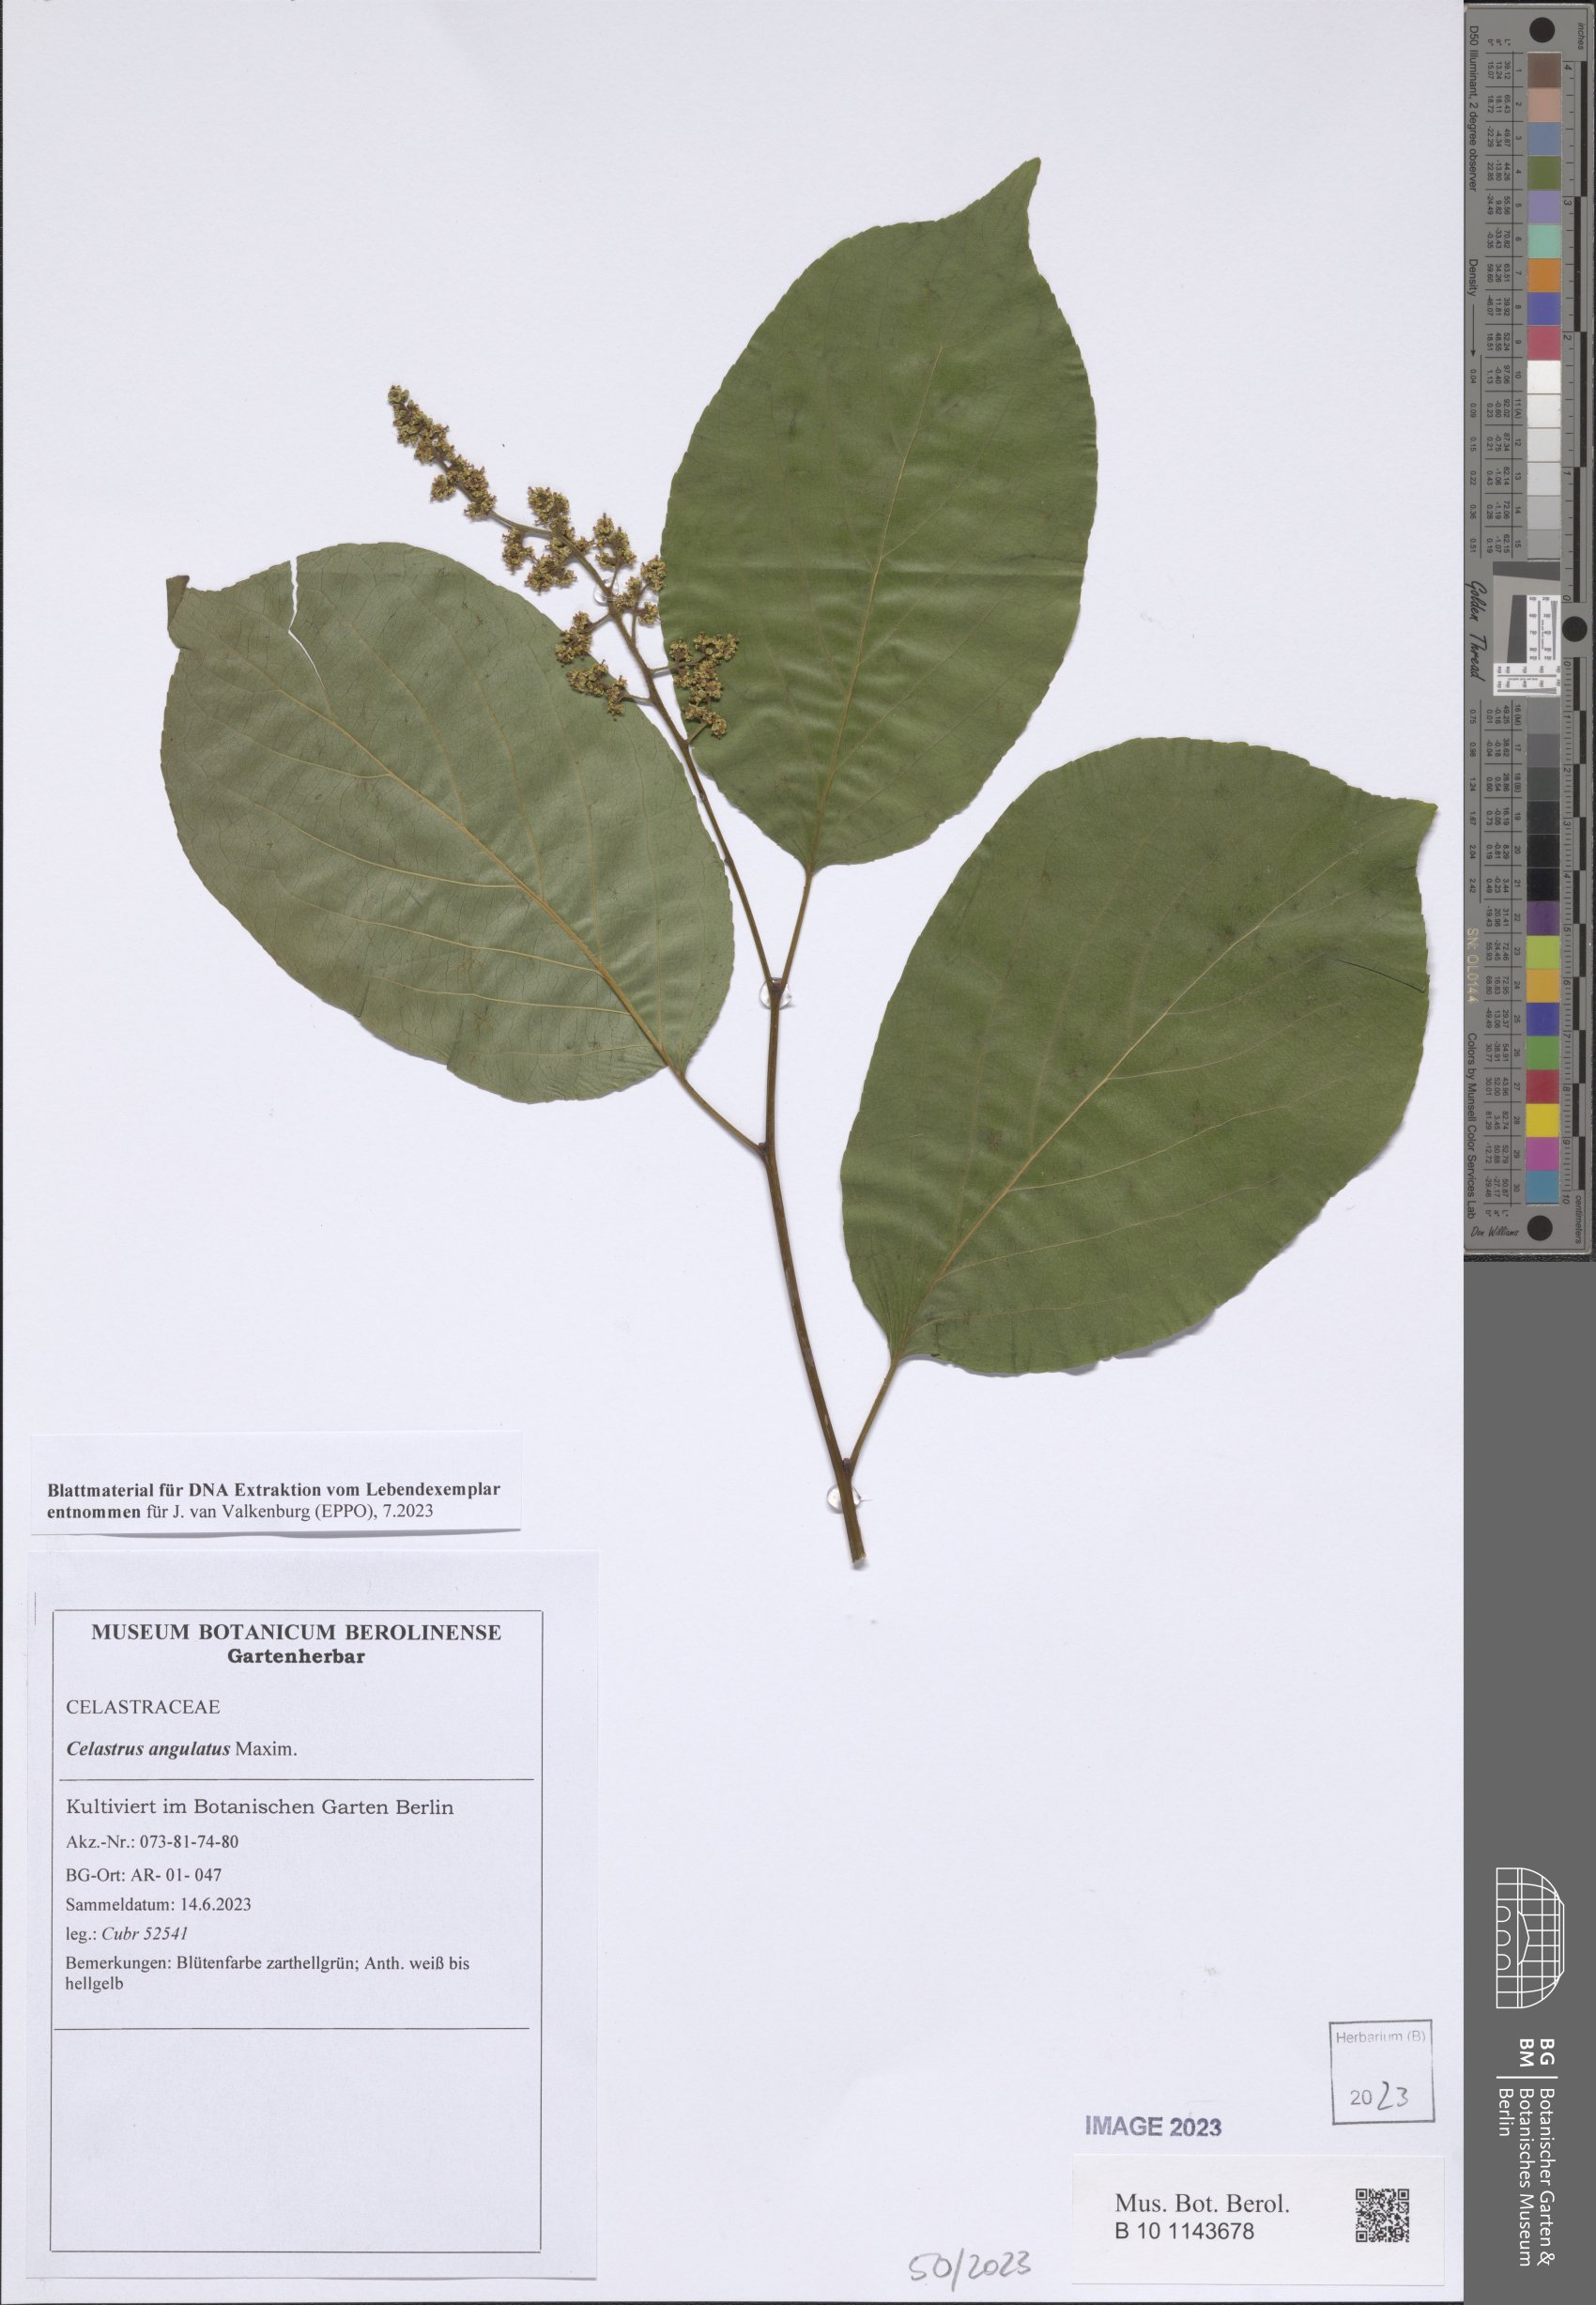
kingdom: Plantae
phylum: Tracheophyta
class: Magnoliopsida
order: Celastrales
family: Celastraceae
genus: Celastrus
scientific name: Celastrus angulatus
